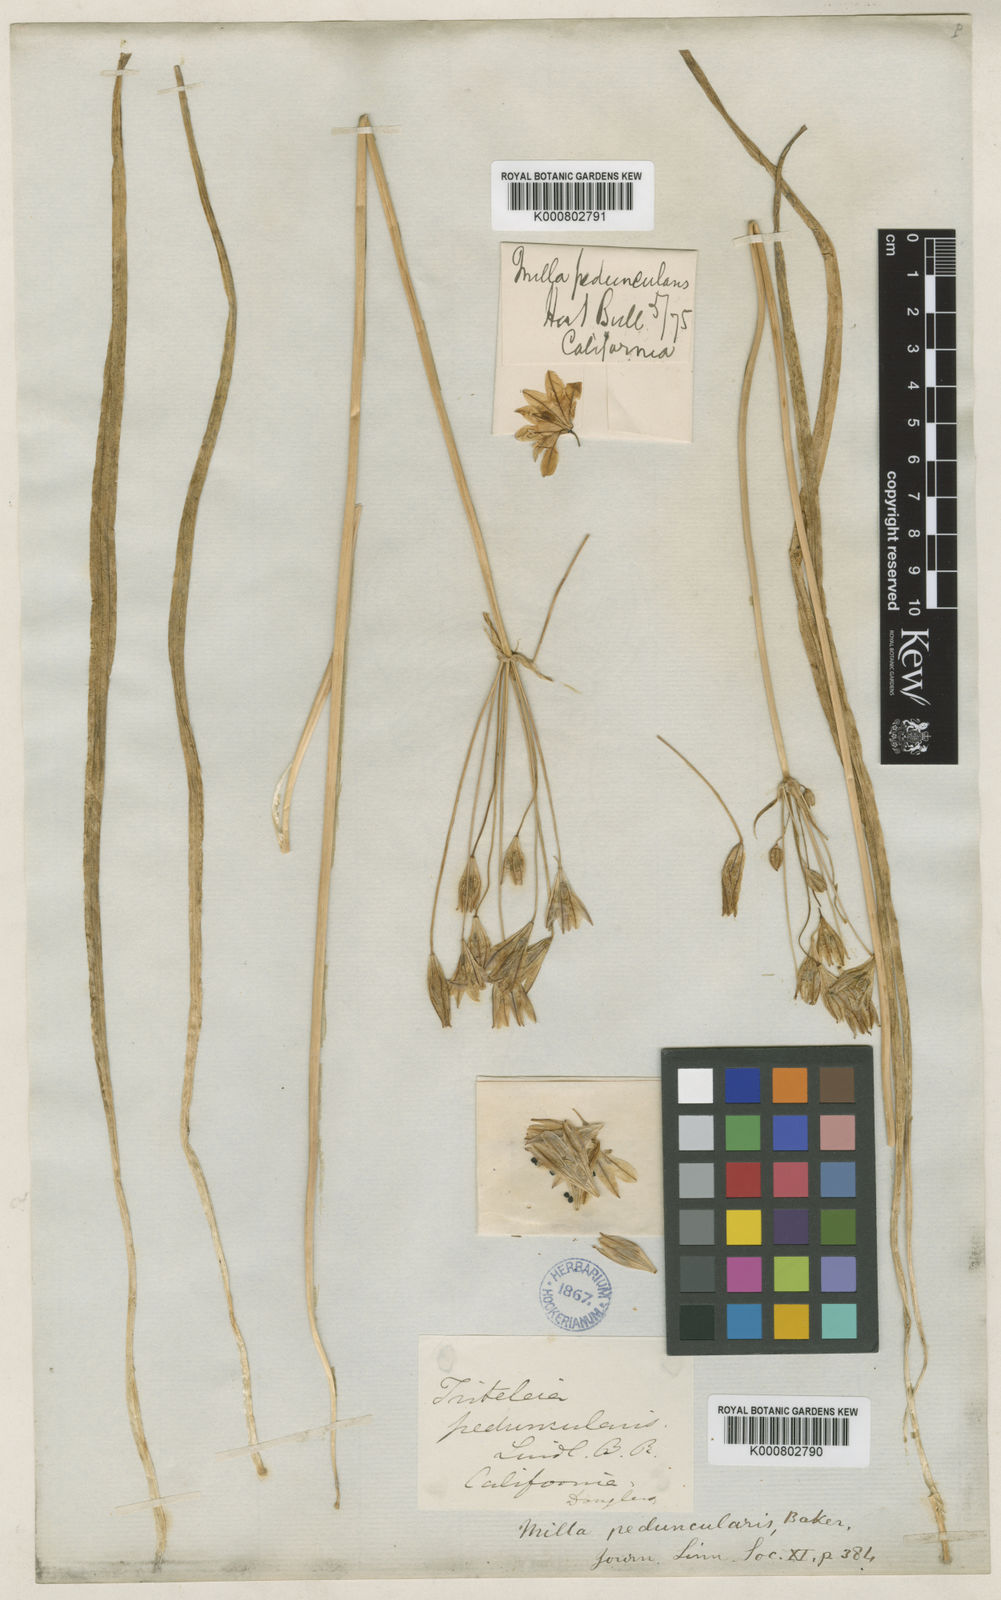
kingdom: Plantae
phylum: Tracheophyta
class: Liliopsida
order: Asparagales
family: Asparagaceae
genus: Triteleia
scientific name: Triteleia peduncularis
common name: Long-ray brodiaea
